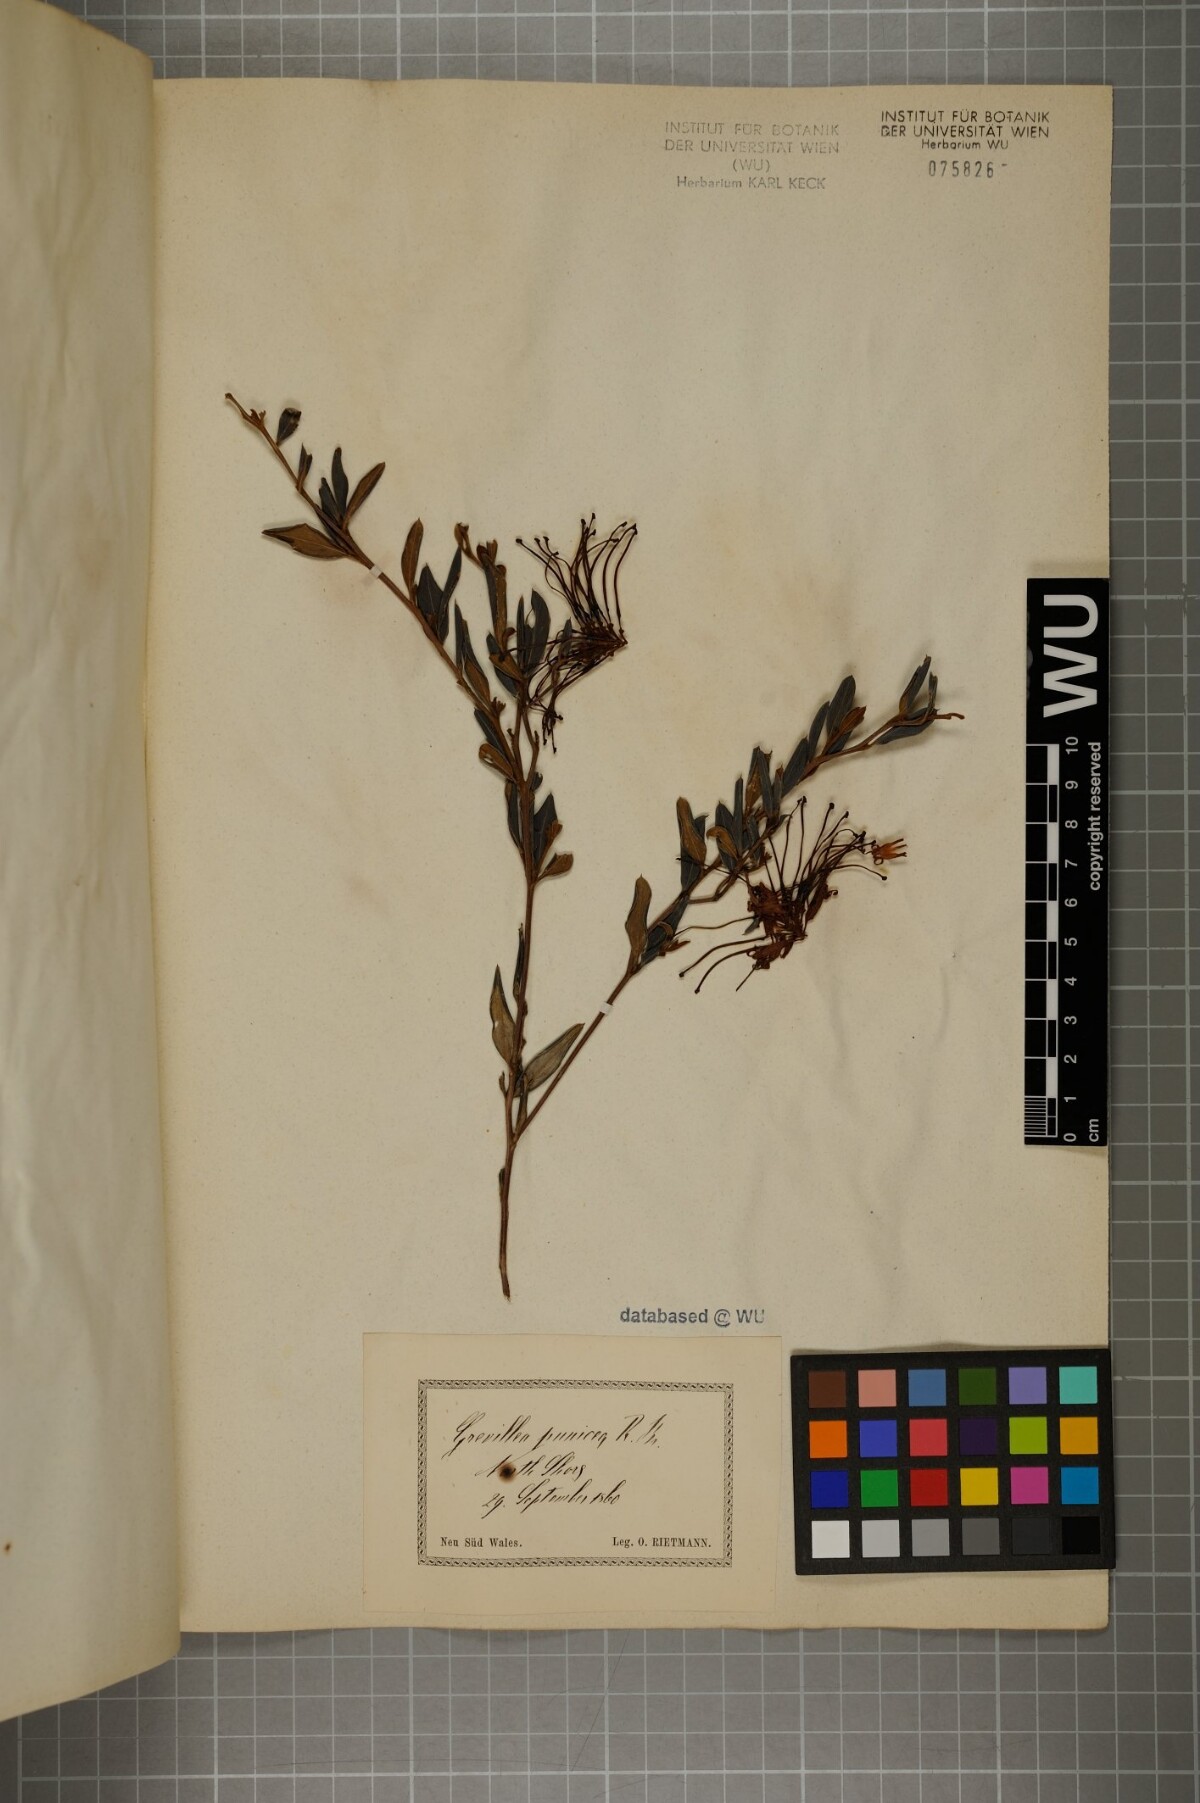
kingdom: Plantae
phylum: Tracheophyta
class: Magnoliopsida
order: Proteales
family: Proteaceae
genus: Grevillea
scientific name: Grevillea speciosa
